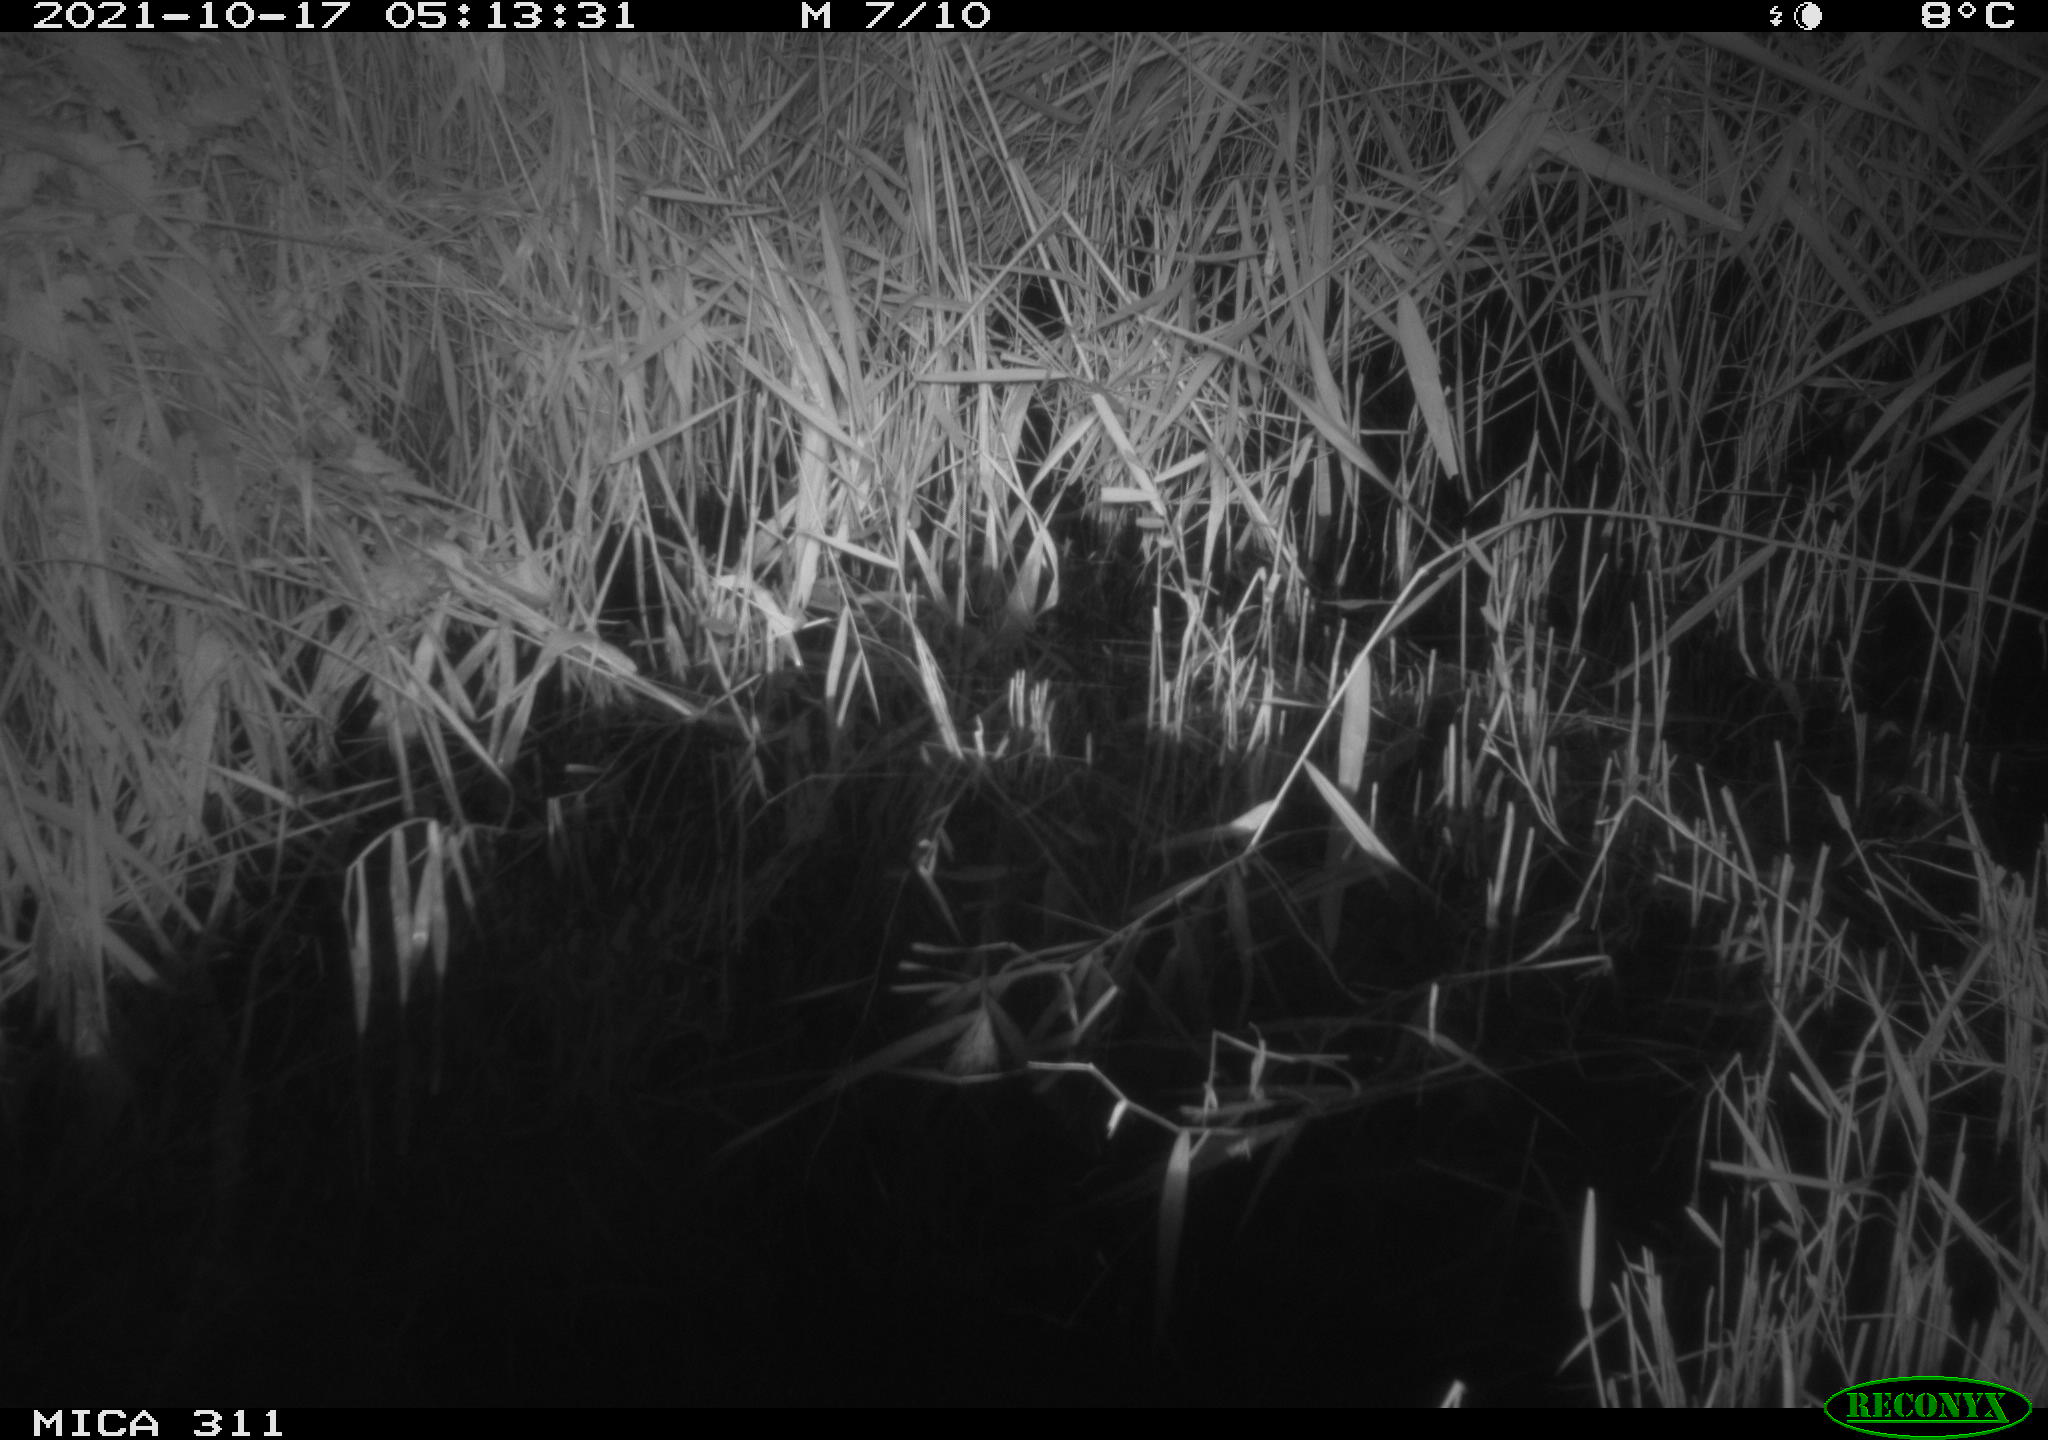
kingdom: Animalia
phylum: Chordata
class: Mammalia
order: Rodentia
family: Muridae
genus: Rattus
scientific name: Rattus norvegicus
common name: Brown rat
